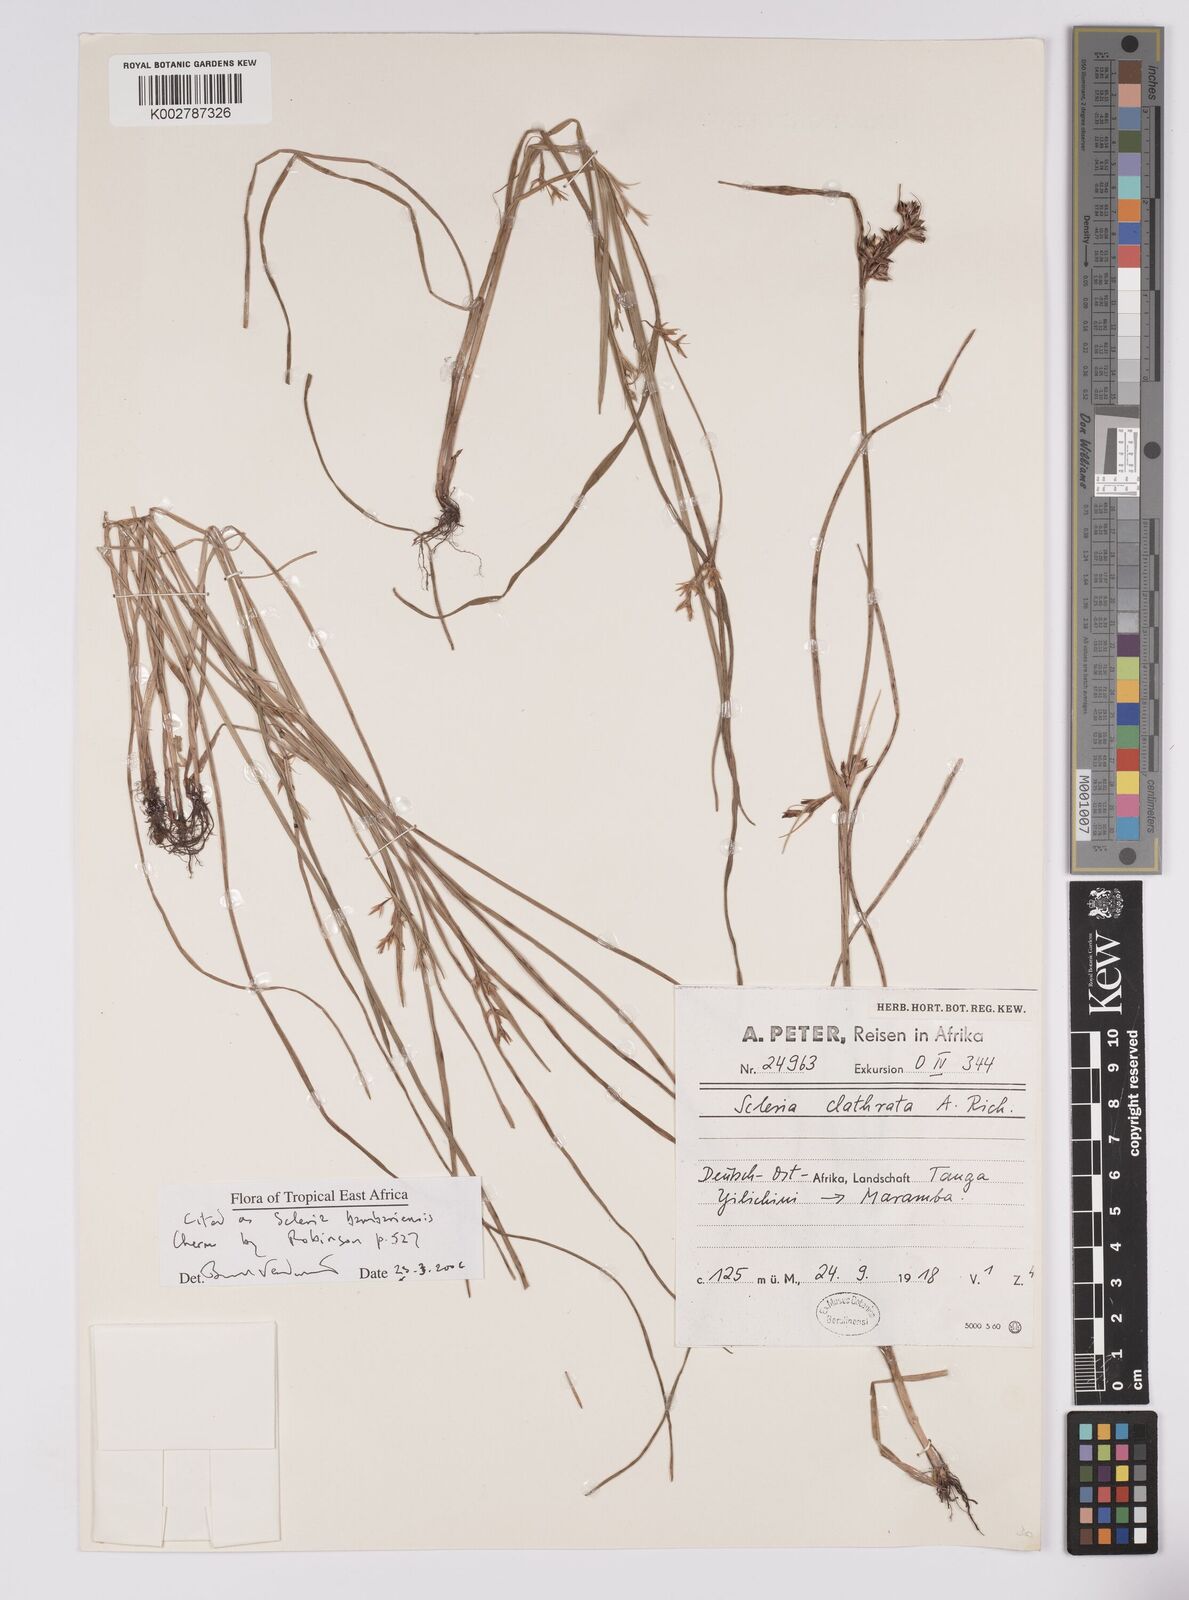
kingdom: Plantae
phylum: Tracheophyta
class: Liliopsida
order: Poales
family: Cyperaceae
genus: Scleria
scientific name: Scleria bambariensis
